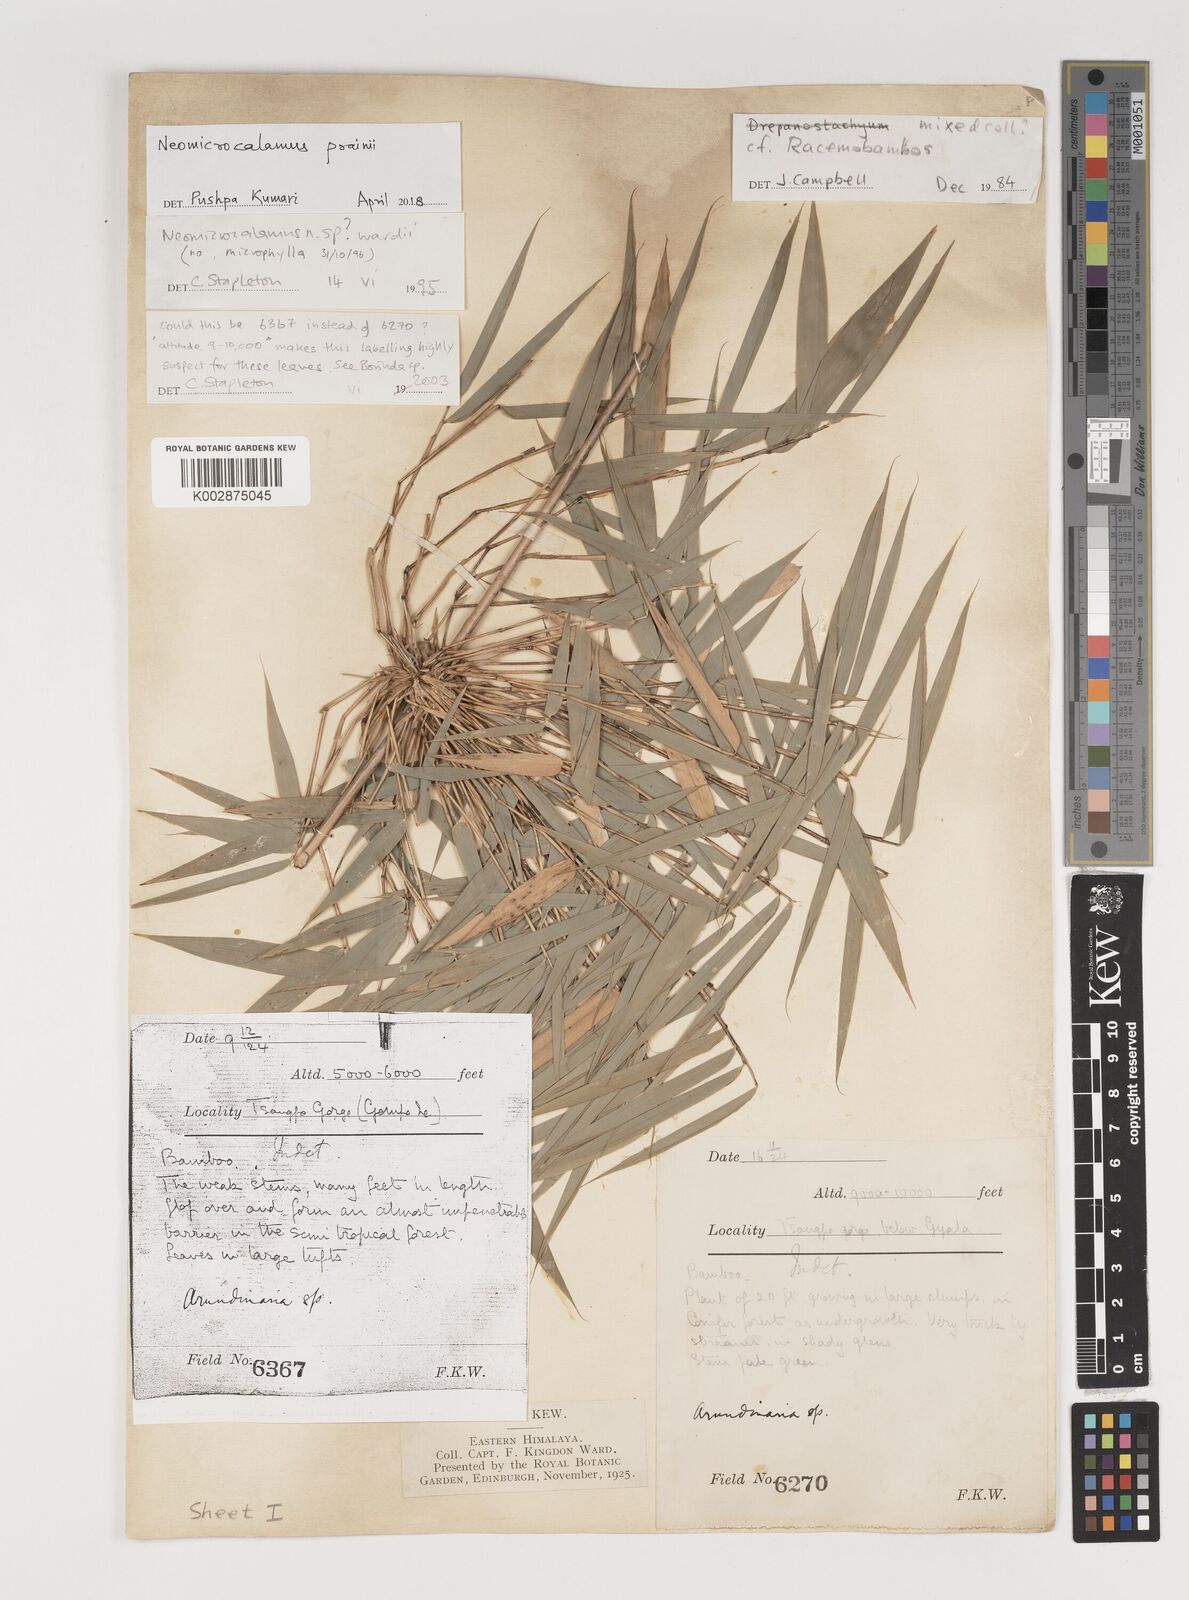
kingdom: Plantae
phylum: Tracheophyta
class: Liliopsida
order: Poales
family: Poaceae
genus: Neomicrocalamus
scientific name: Neomicrocalamus prainii
